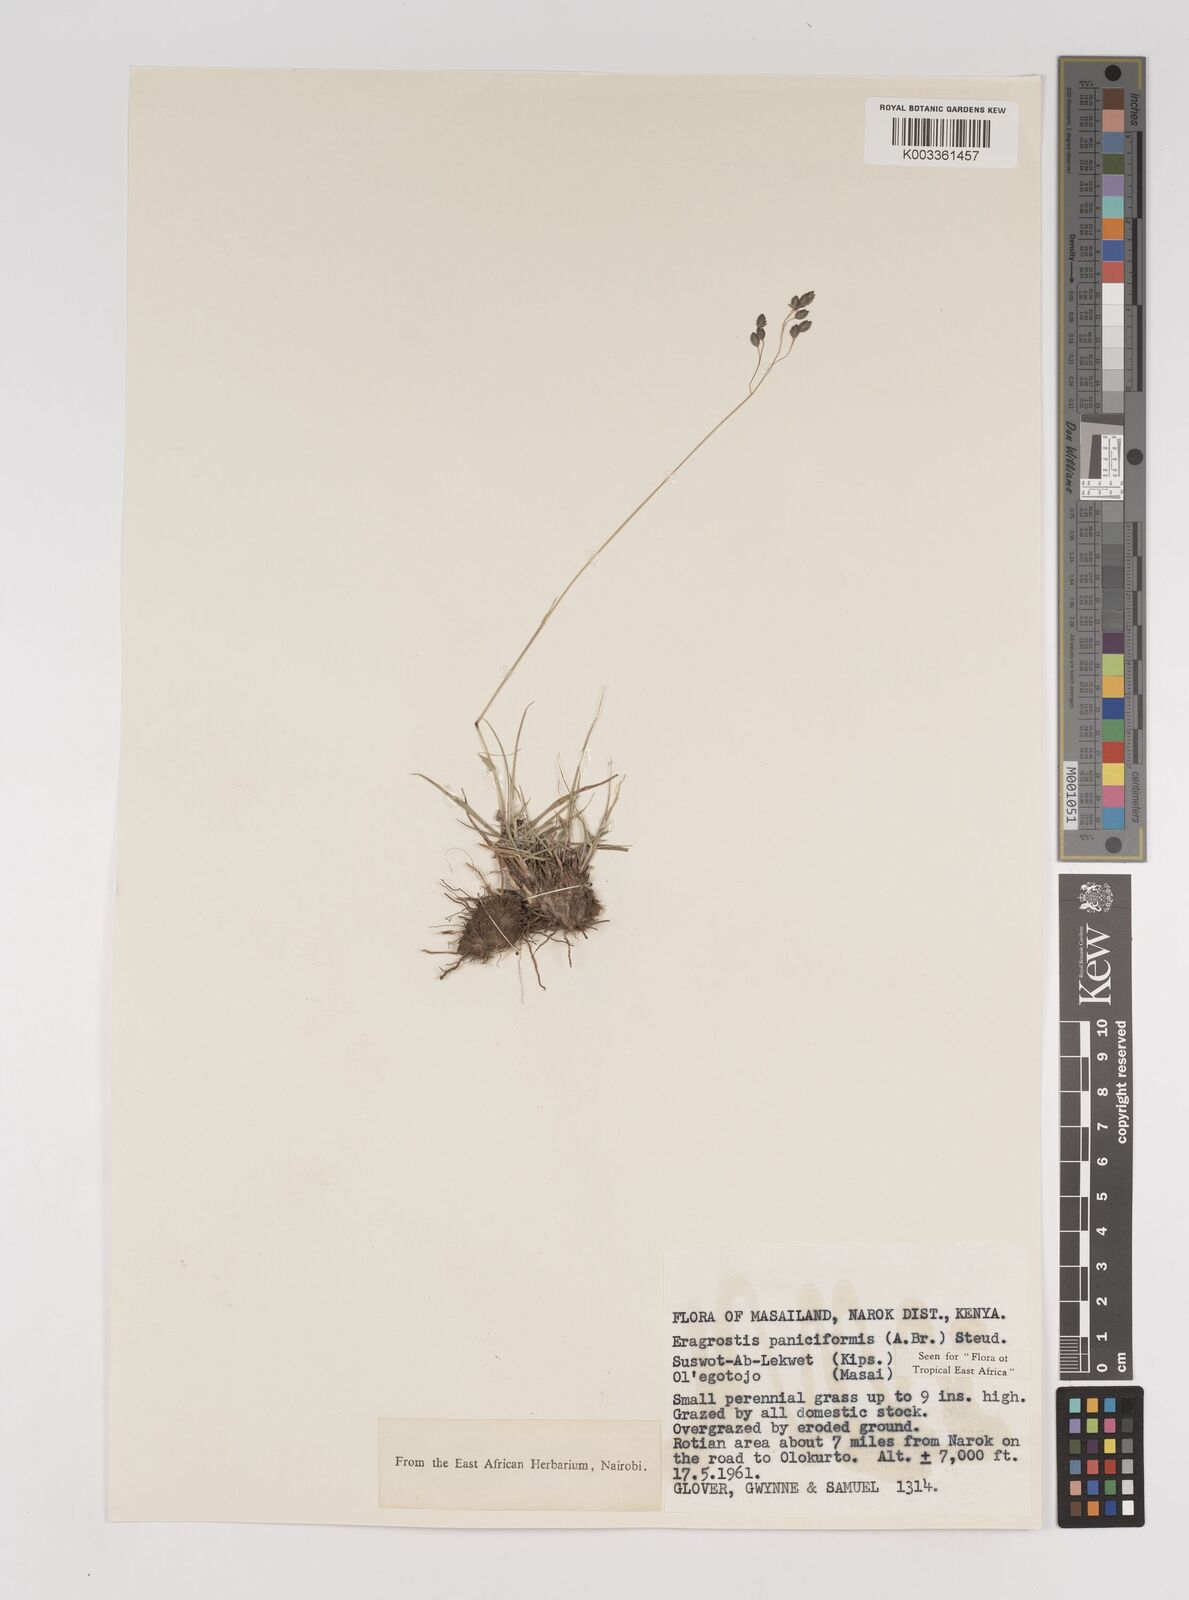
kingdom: Plantae
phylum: Tracheophyta
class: Liliopsida
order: Poales
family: Poaceae
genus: Eragrostis
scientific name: Eragrostis paniciformis
